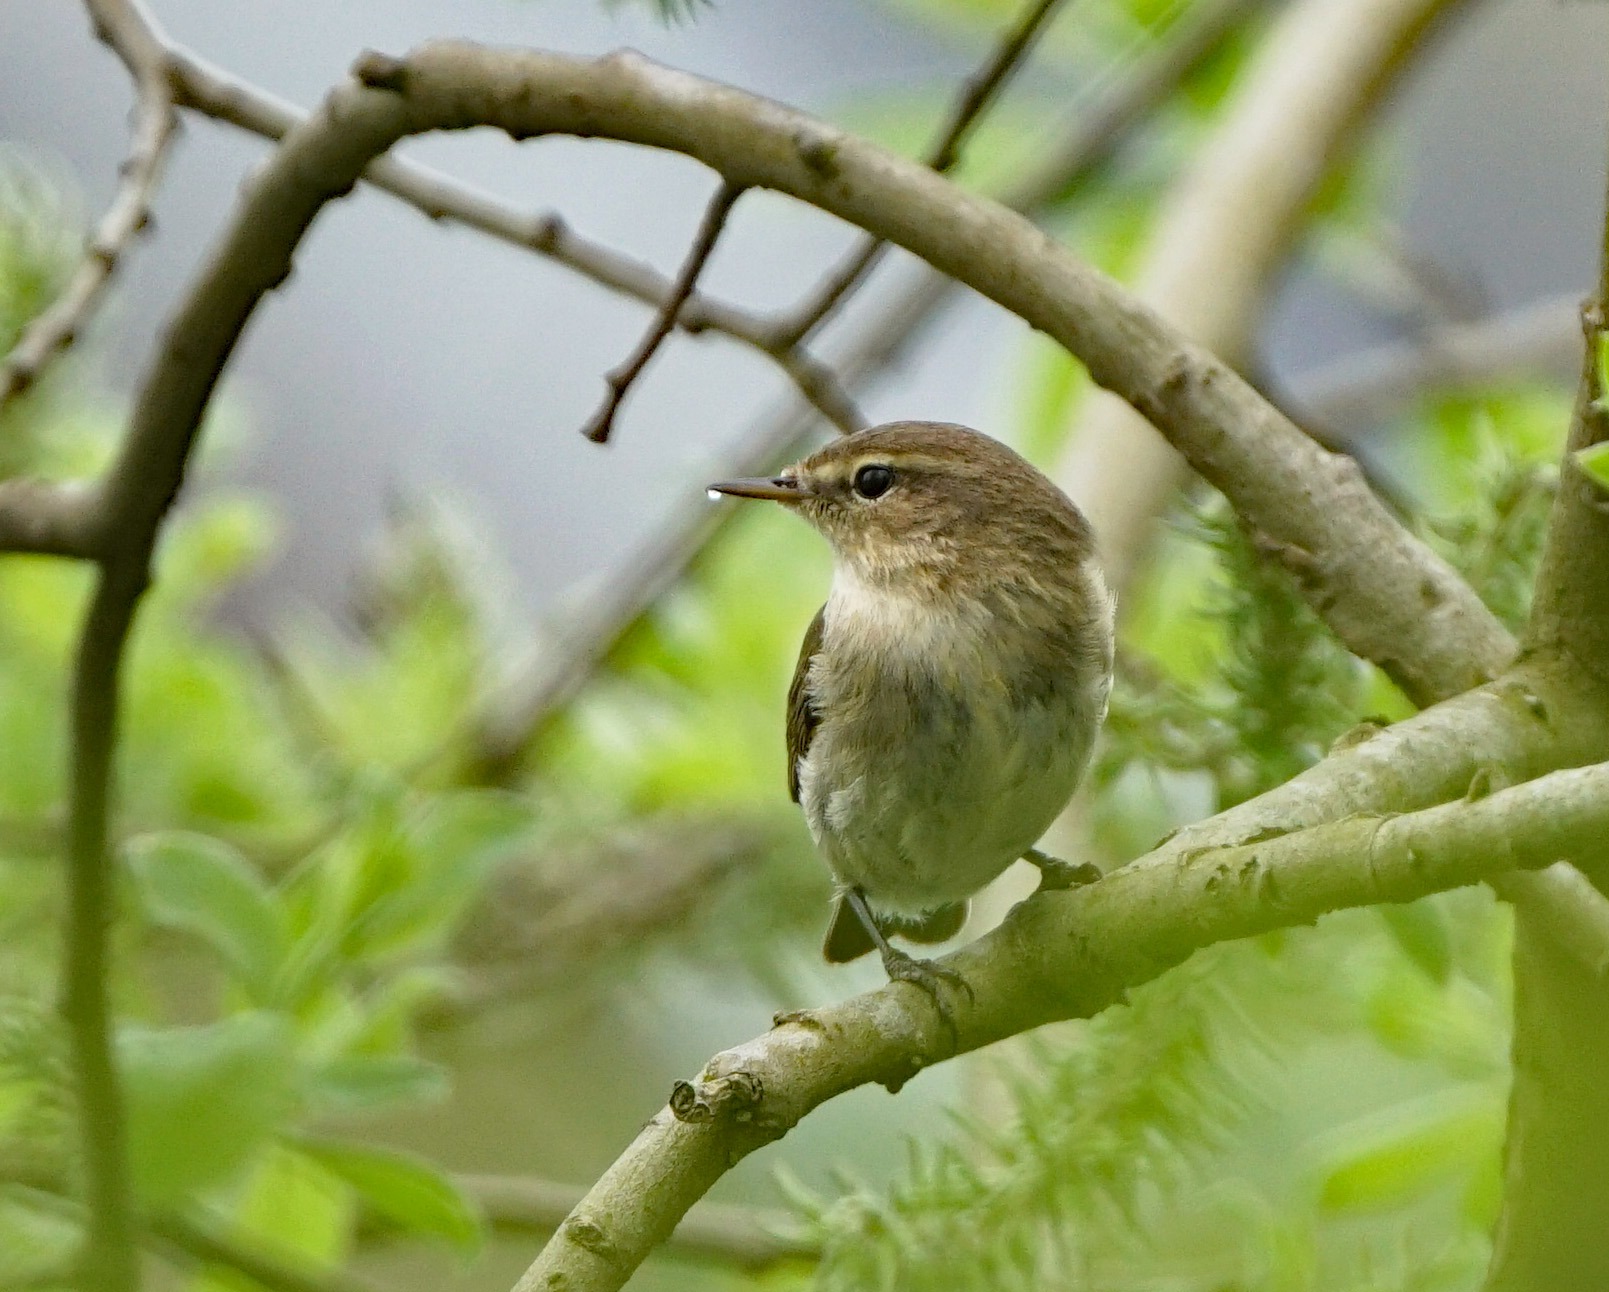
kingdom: Animalia
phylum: Chordata
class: Aves
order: Passeriformes
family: Phylloscopidae
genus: Phylloscopus
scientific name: Phylloscopus collybita
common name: Gransanger
